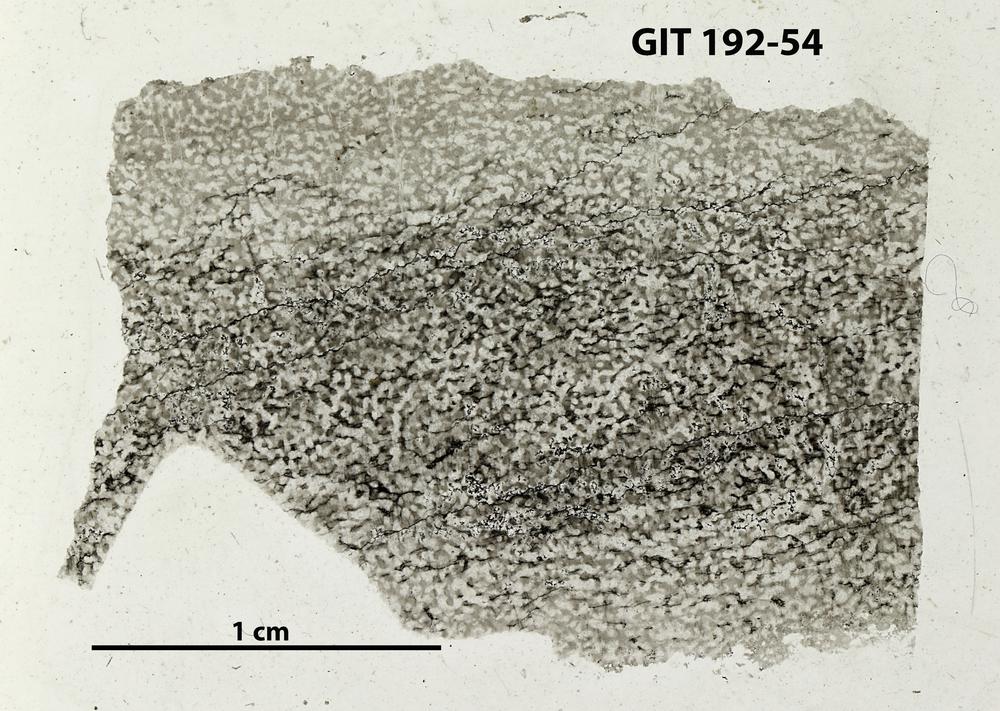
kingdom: Animalia
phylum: Porifera
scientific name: Porifera
